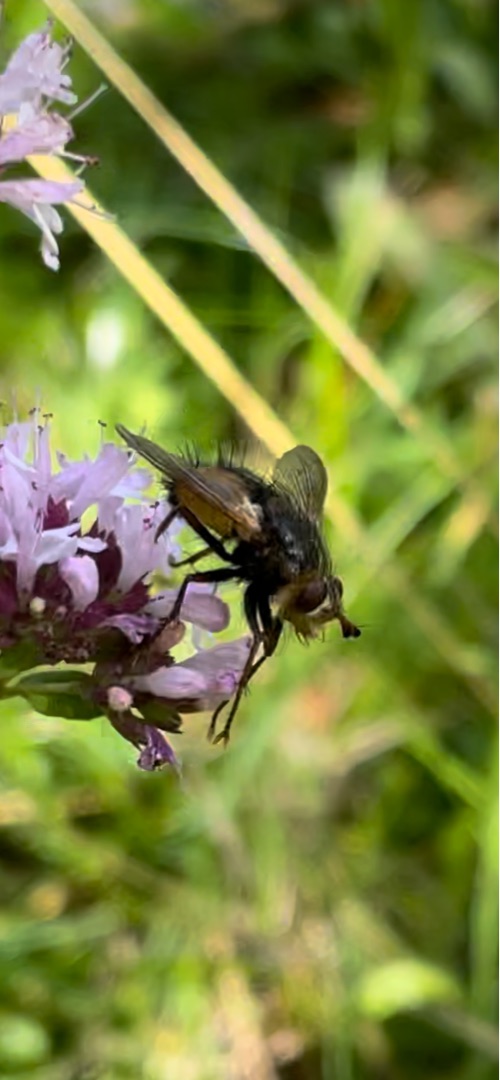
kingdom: Animalia
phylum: Arthropoda
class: Insecta
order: Diptera
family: Tachinidae
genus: Tachina
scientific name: Tachina fera
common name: Mellemfluen oskar
